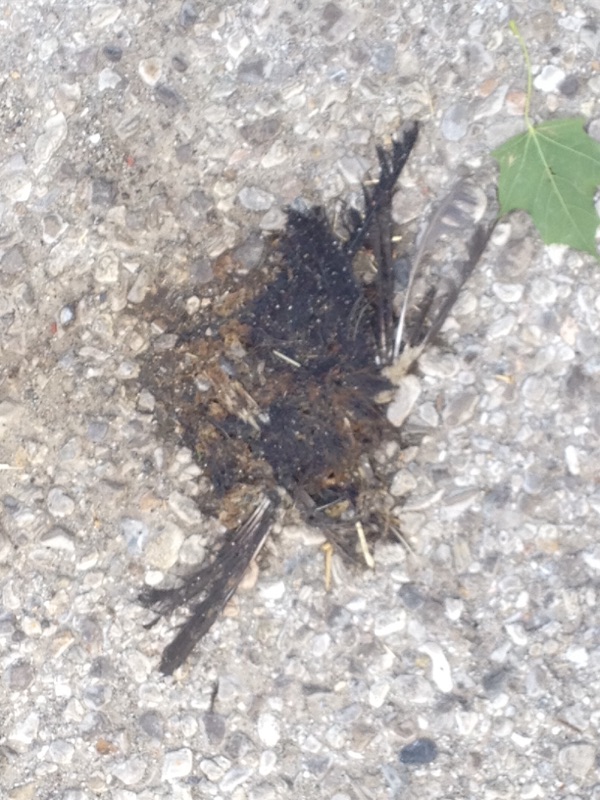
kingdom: Animalia
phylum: Chordata
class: Aves
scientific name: Aves
